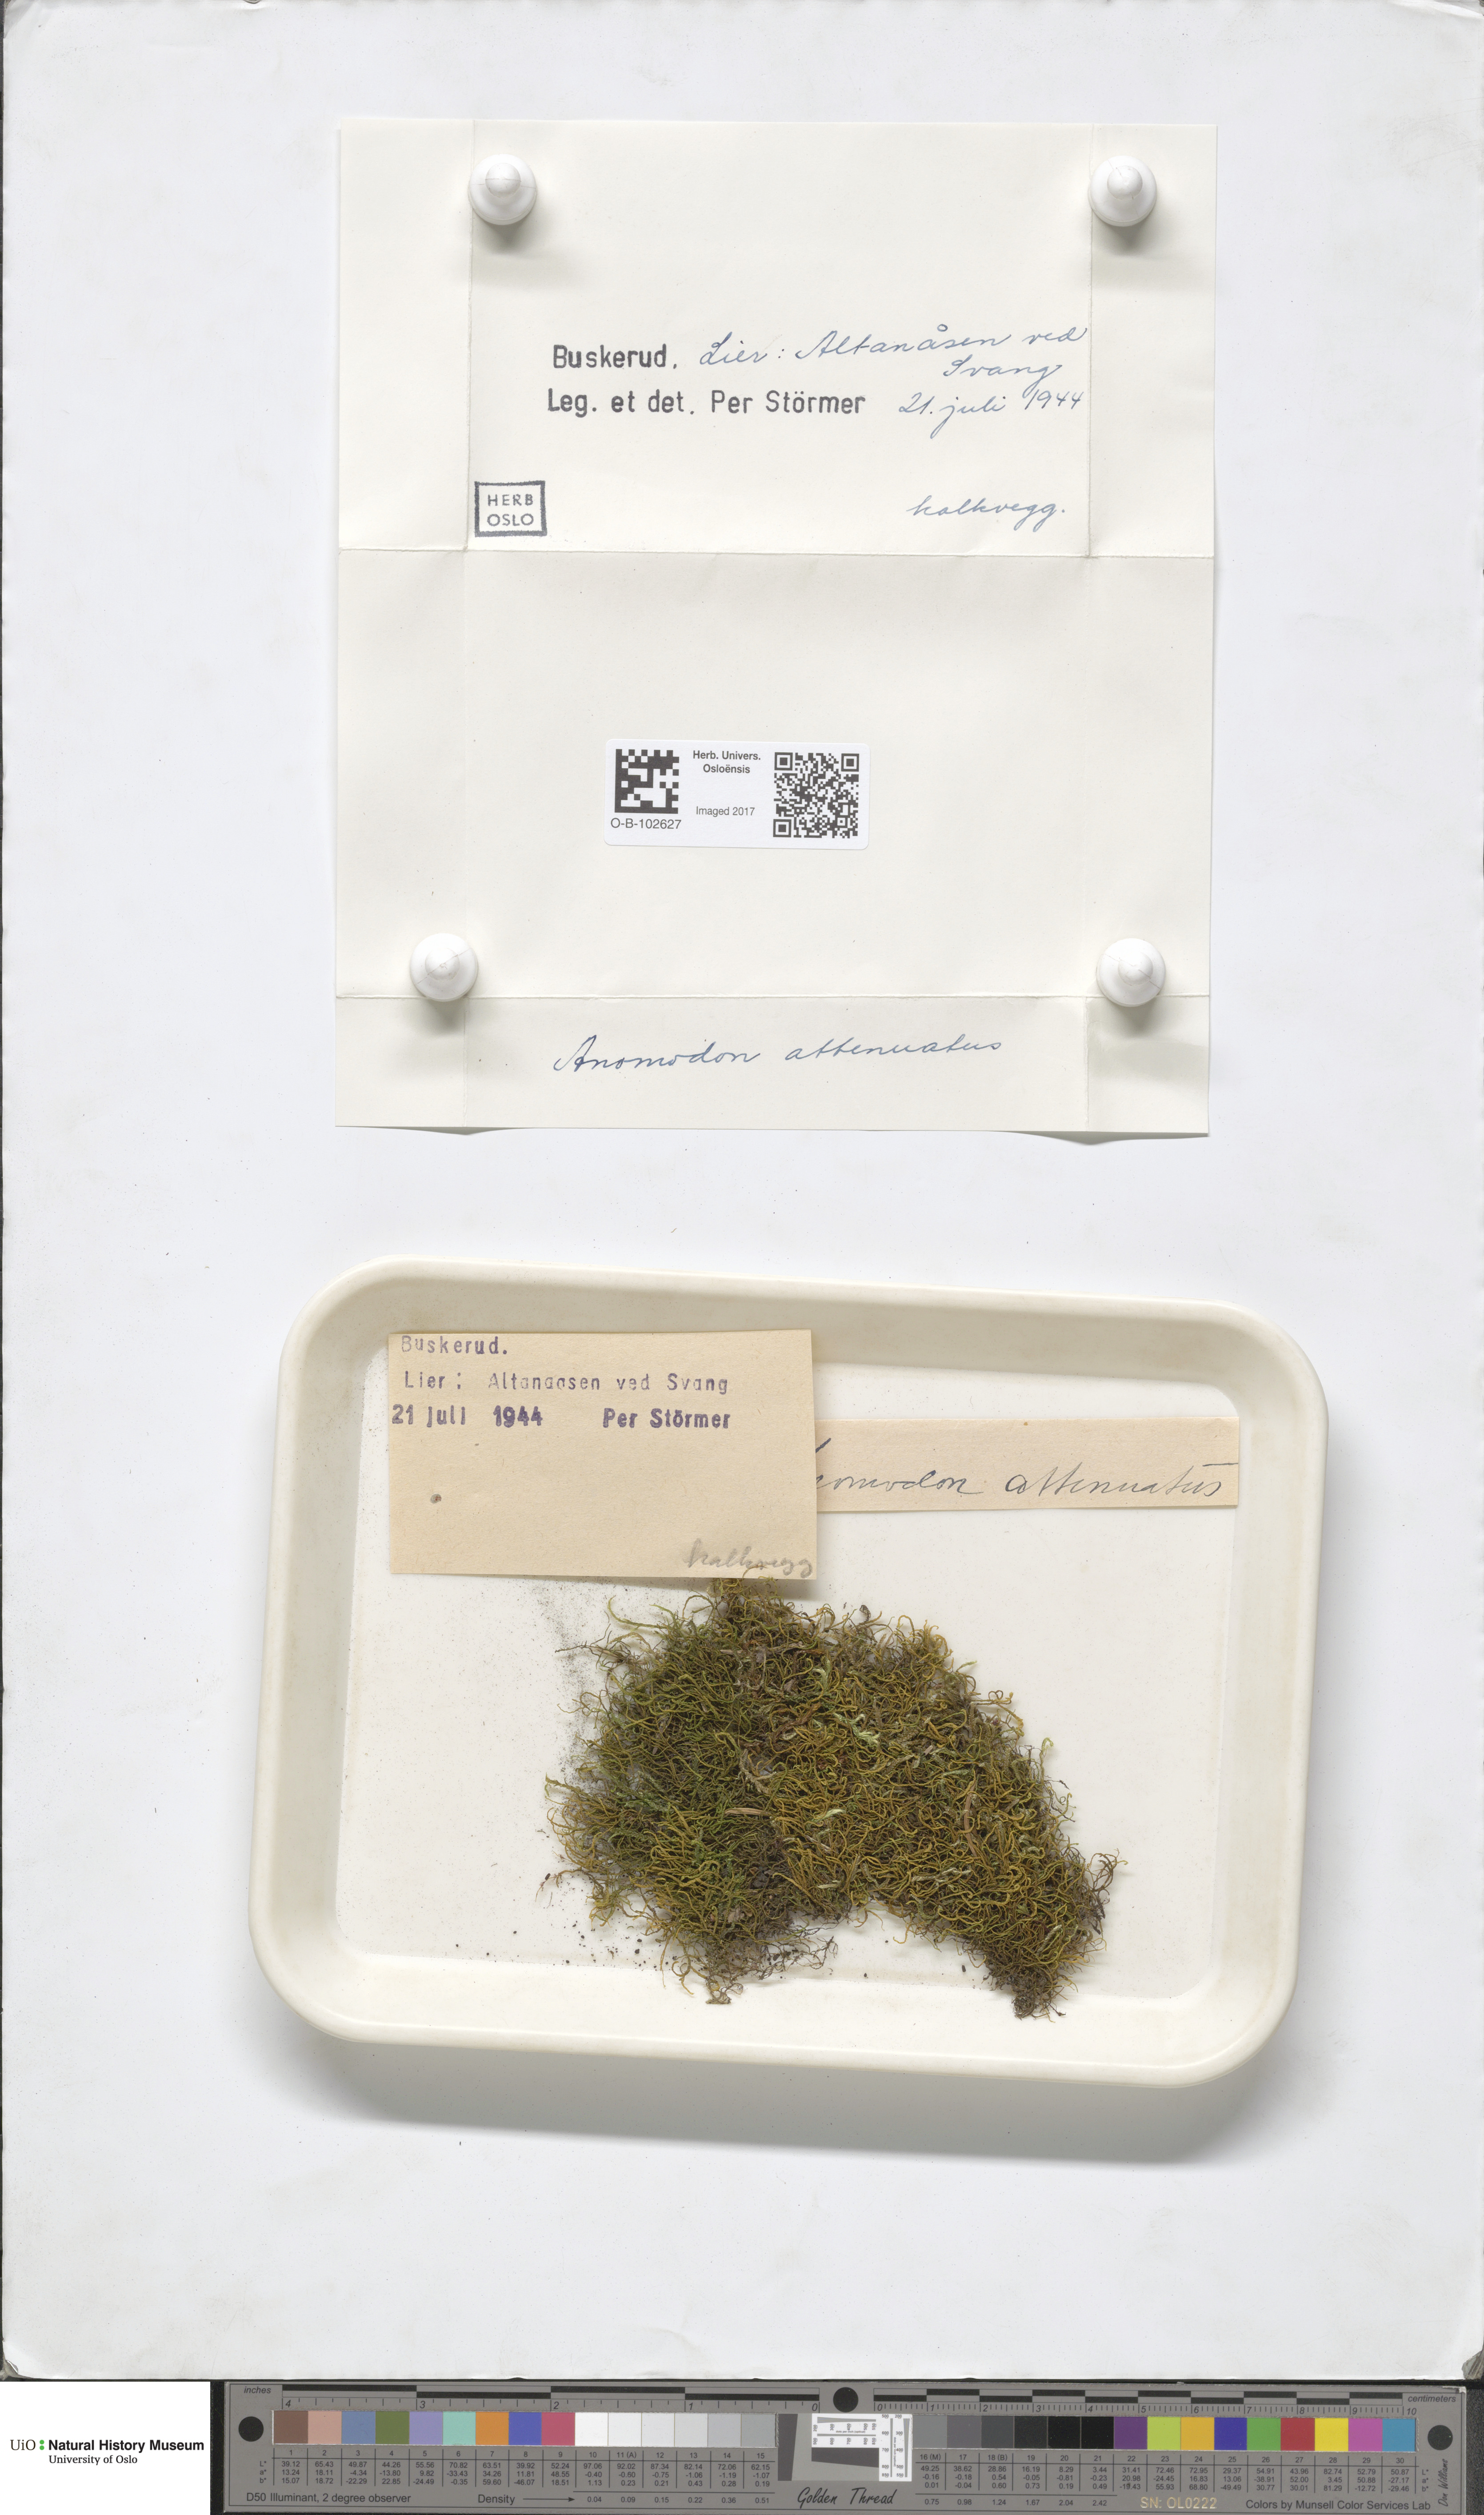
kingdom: Plantae
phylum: Bryophyta
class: Bryopsida
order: Hypnales
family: Neckeraceae
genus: Pseudanomodon
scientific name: Pseudanomodon attenuatus
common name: Tree-skirt moss
